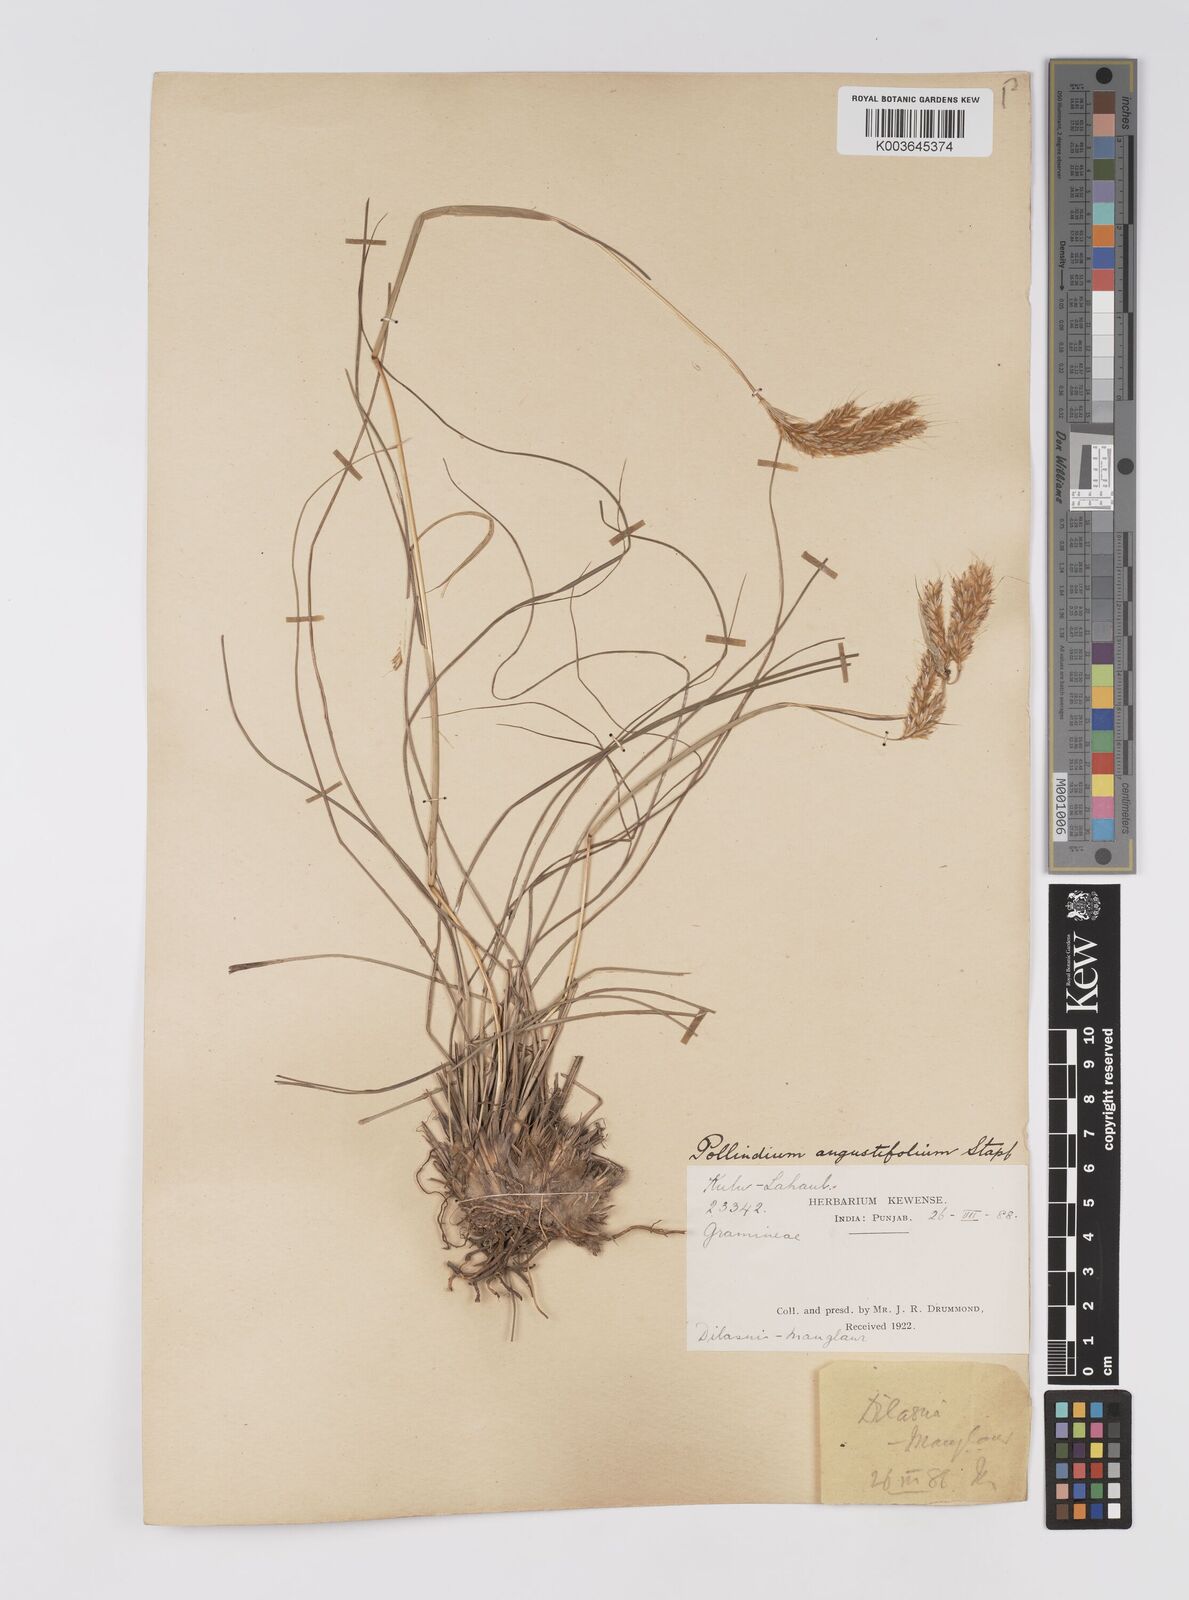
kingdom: Plantae
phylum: Tracheophyta
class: Liliopsida
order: Poales
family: Poaceae
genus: Eulaliopsis
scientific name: Eulaliopsis binata
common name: Baib grass
